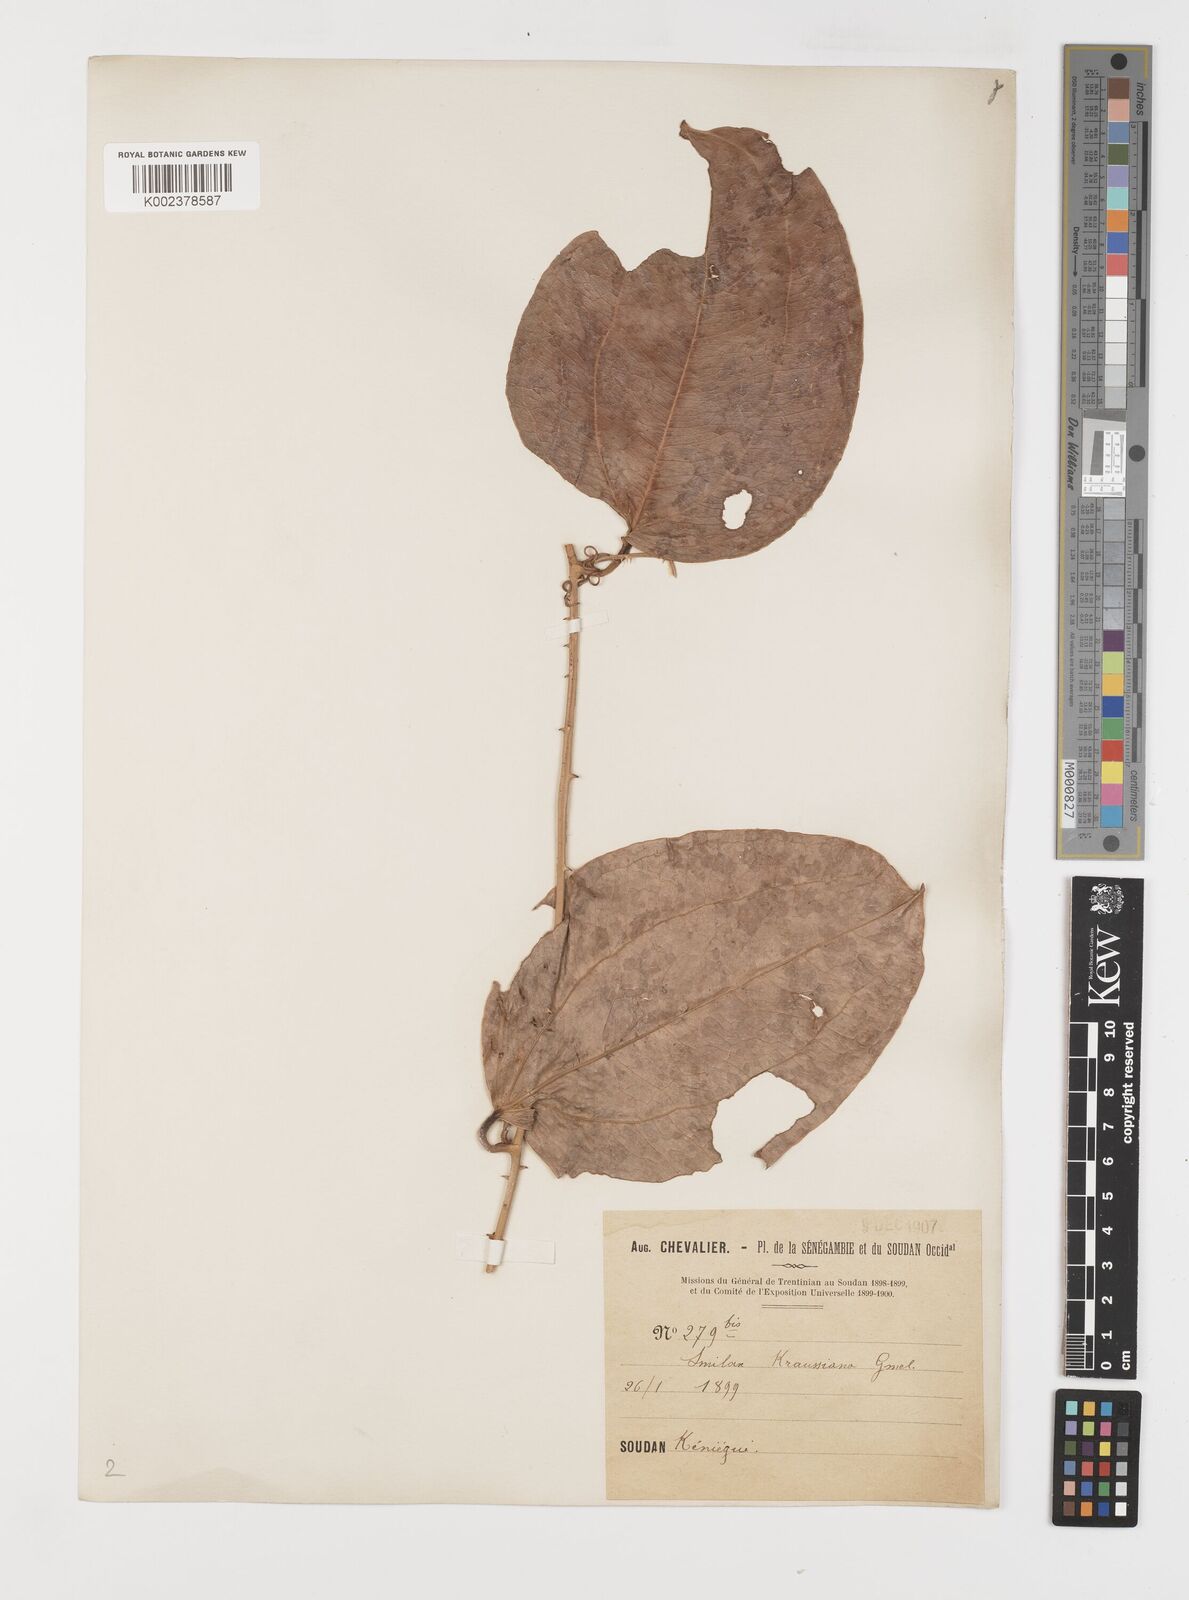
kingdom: Plantae
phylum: Tracheophyta
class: Liliopsida
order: Liliales
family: Smilacaceae
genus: Smilax
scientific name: Smilax anceps
